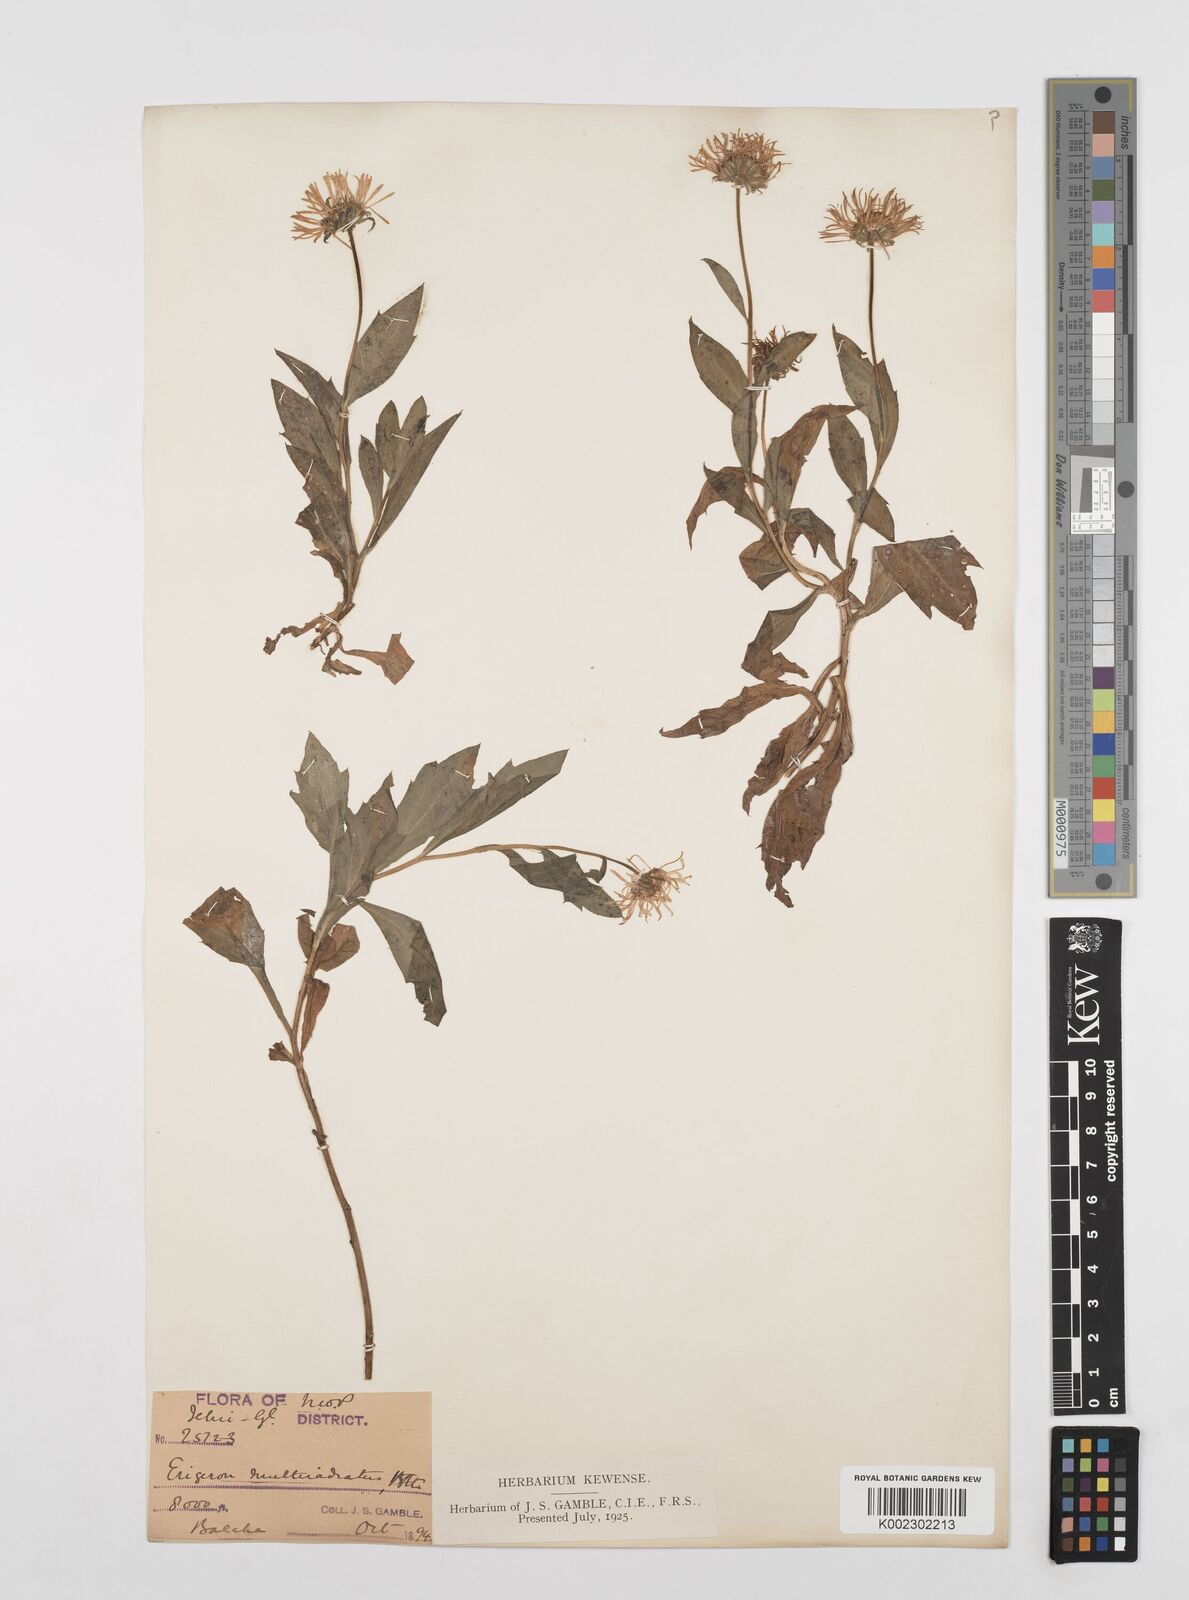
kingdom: Plantae
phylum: Tracheophyta
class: Magnoliopsida
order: Asterales
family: Asteraceae
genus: Erigeron
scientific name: Erigeron multiradiatus
